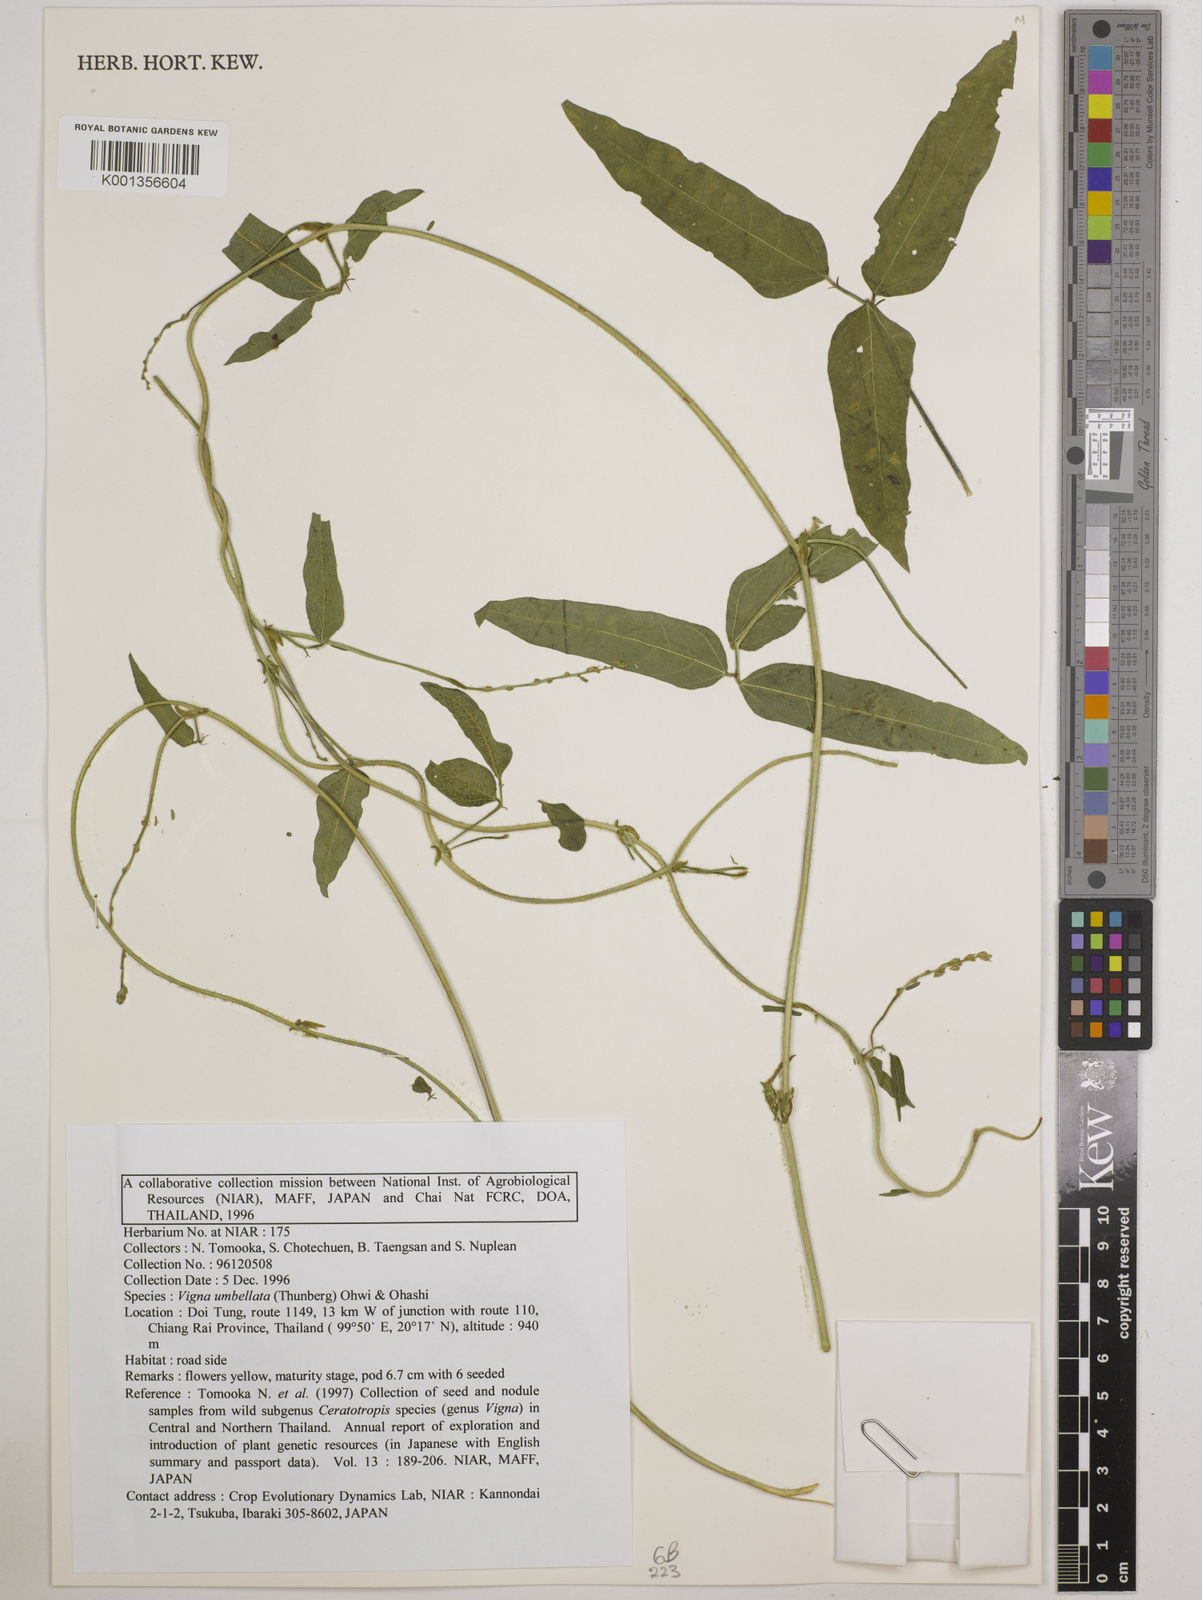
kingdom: Plantae
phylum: Tracheophyta
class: Magnoliopsida
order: Fabales
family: Fabaceae
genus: Vigna
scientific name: Vigna umbellata
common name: Oriental-bean
